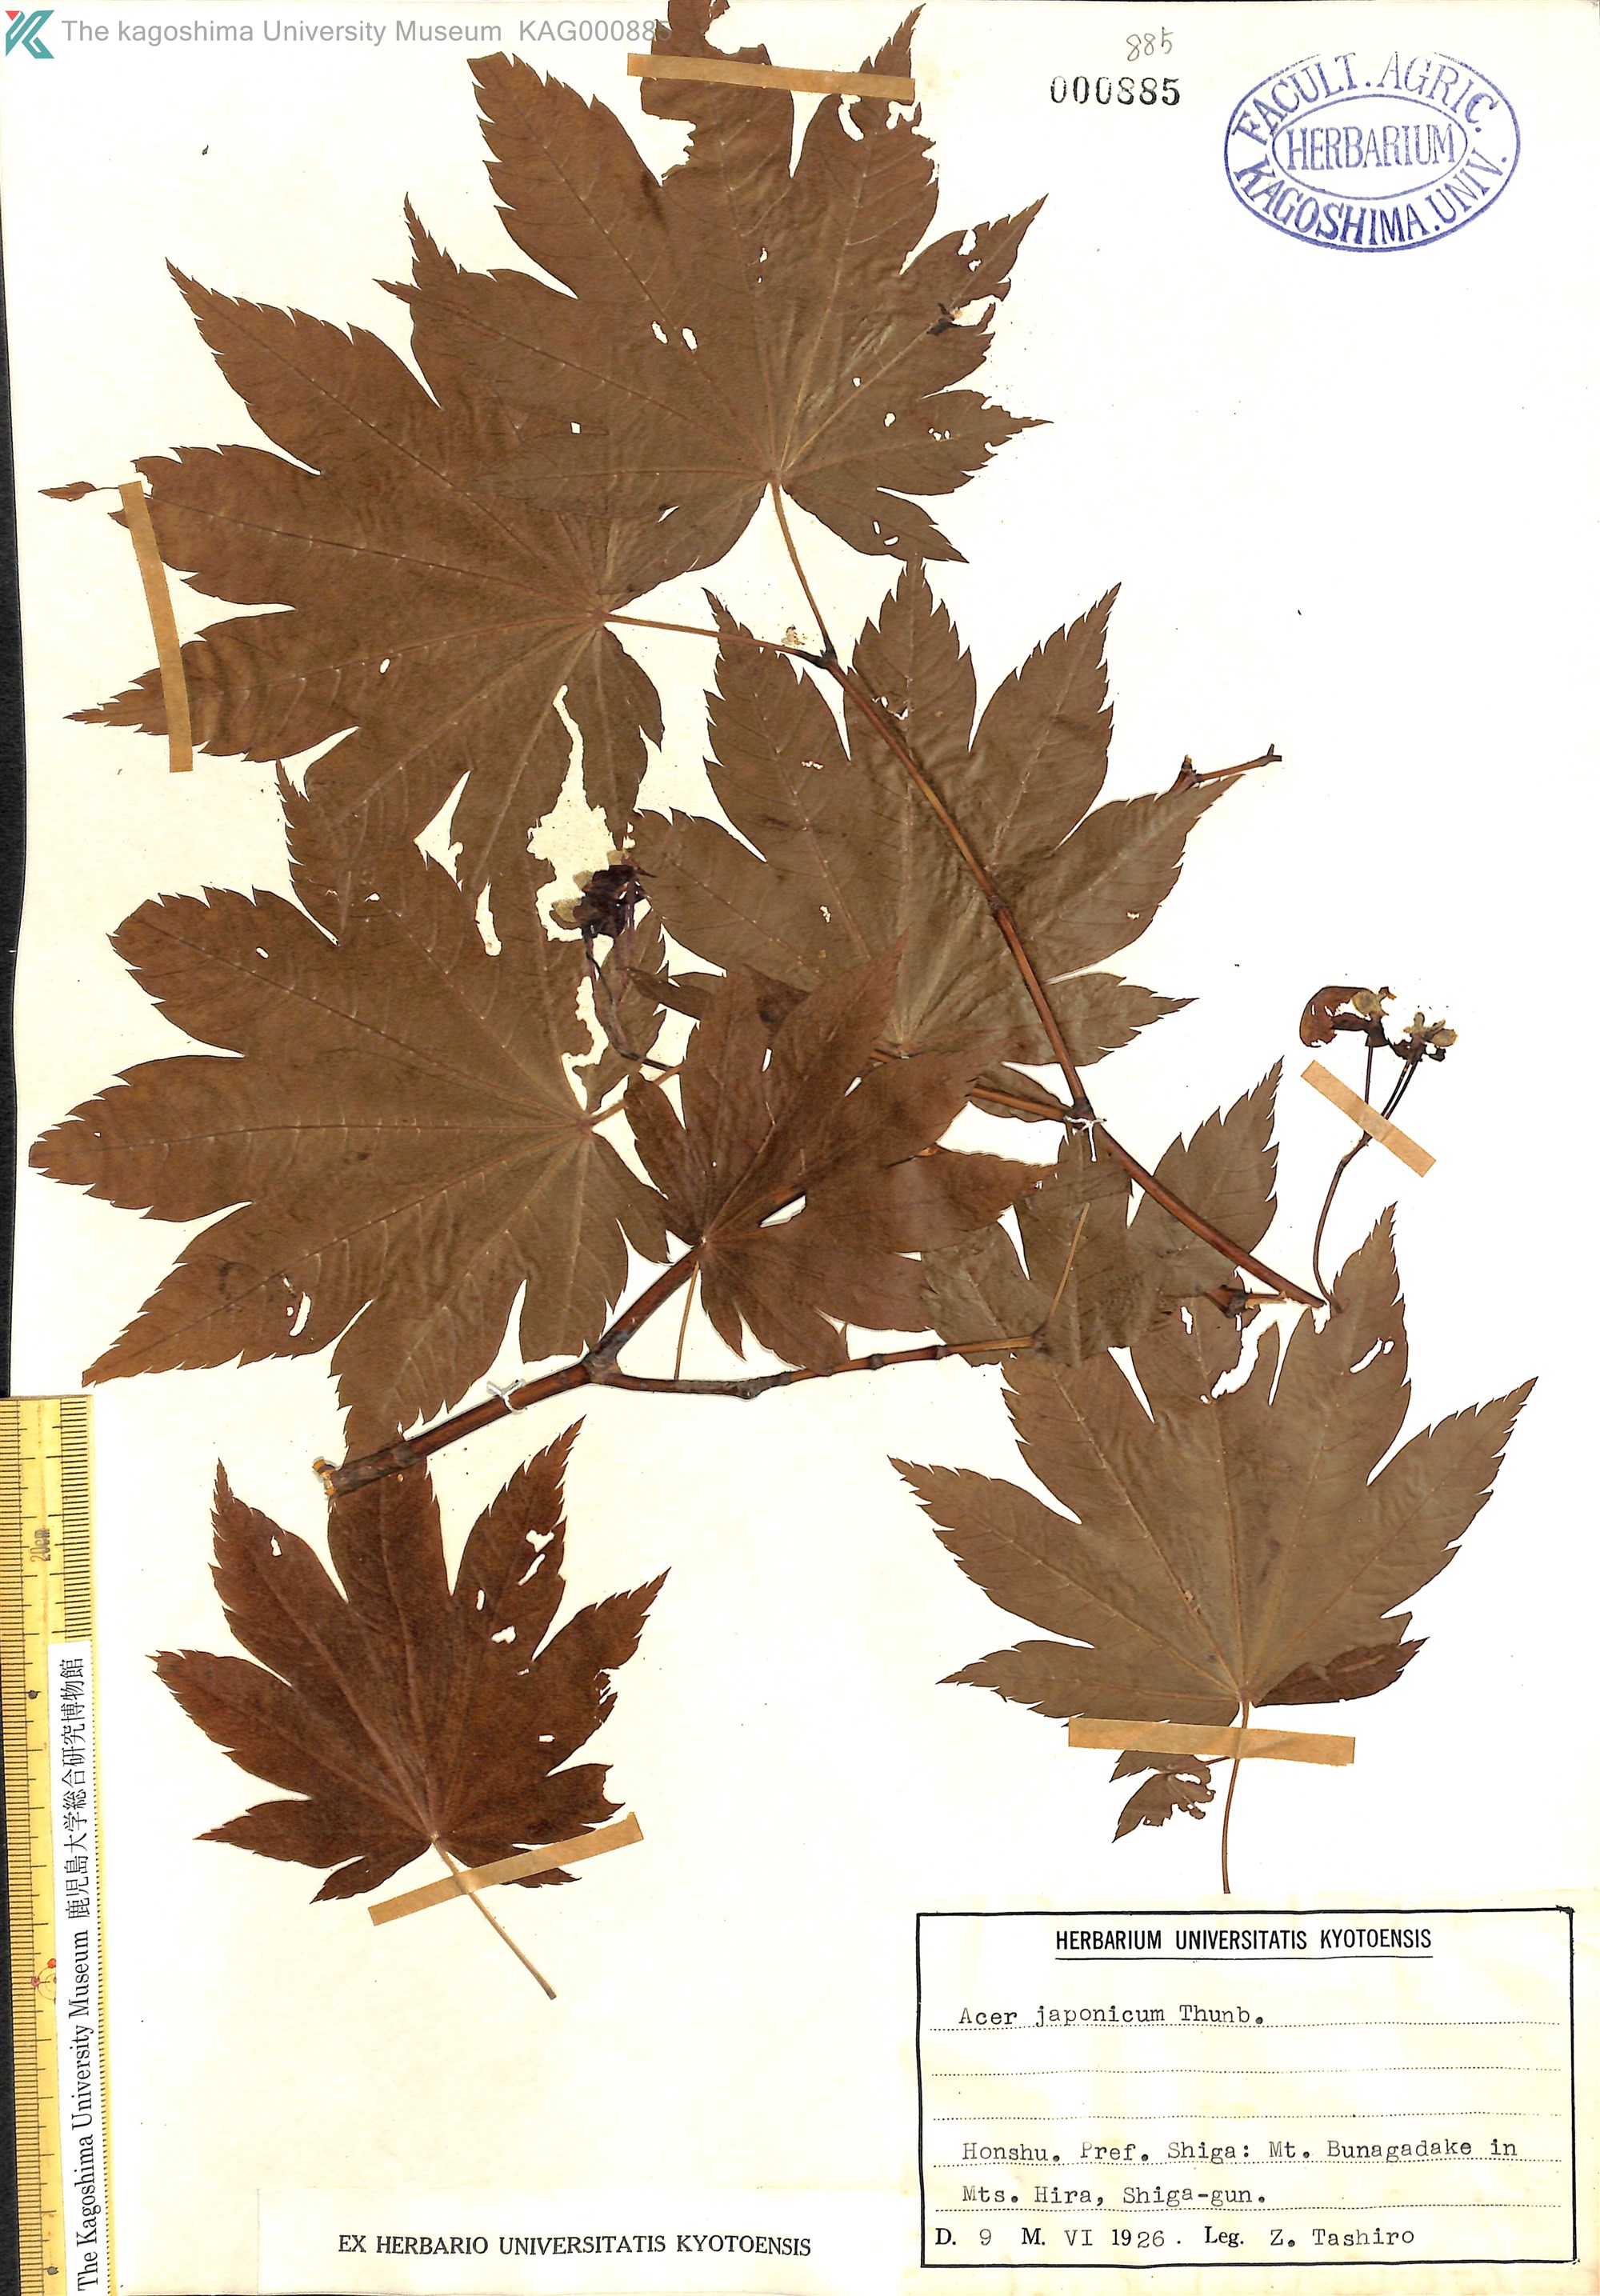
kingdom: Plantae
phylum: Tracheophyta
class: Magnoliopsida
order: Sapindales
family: Sapindaceae
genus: Acer
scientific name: Acer japonicum
